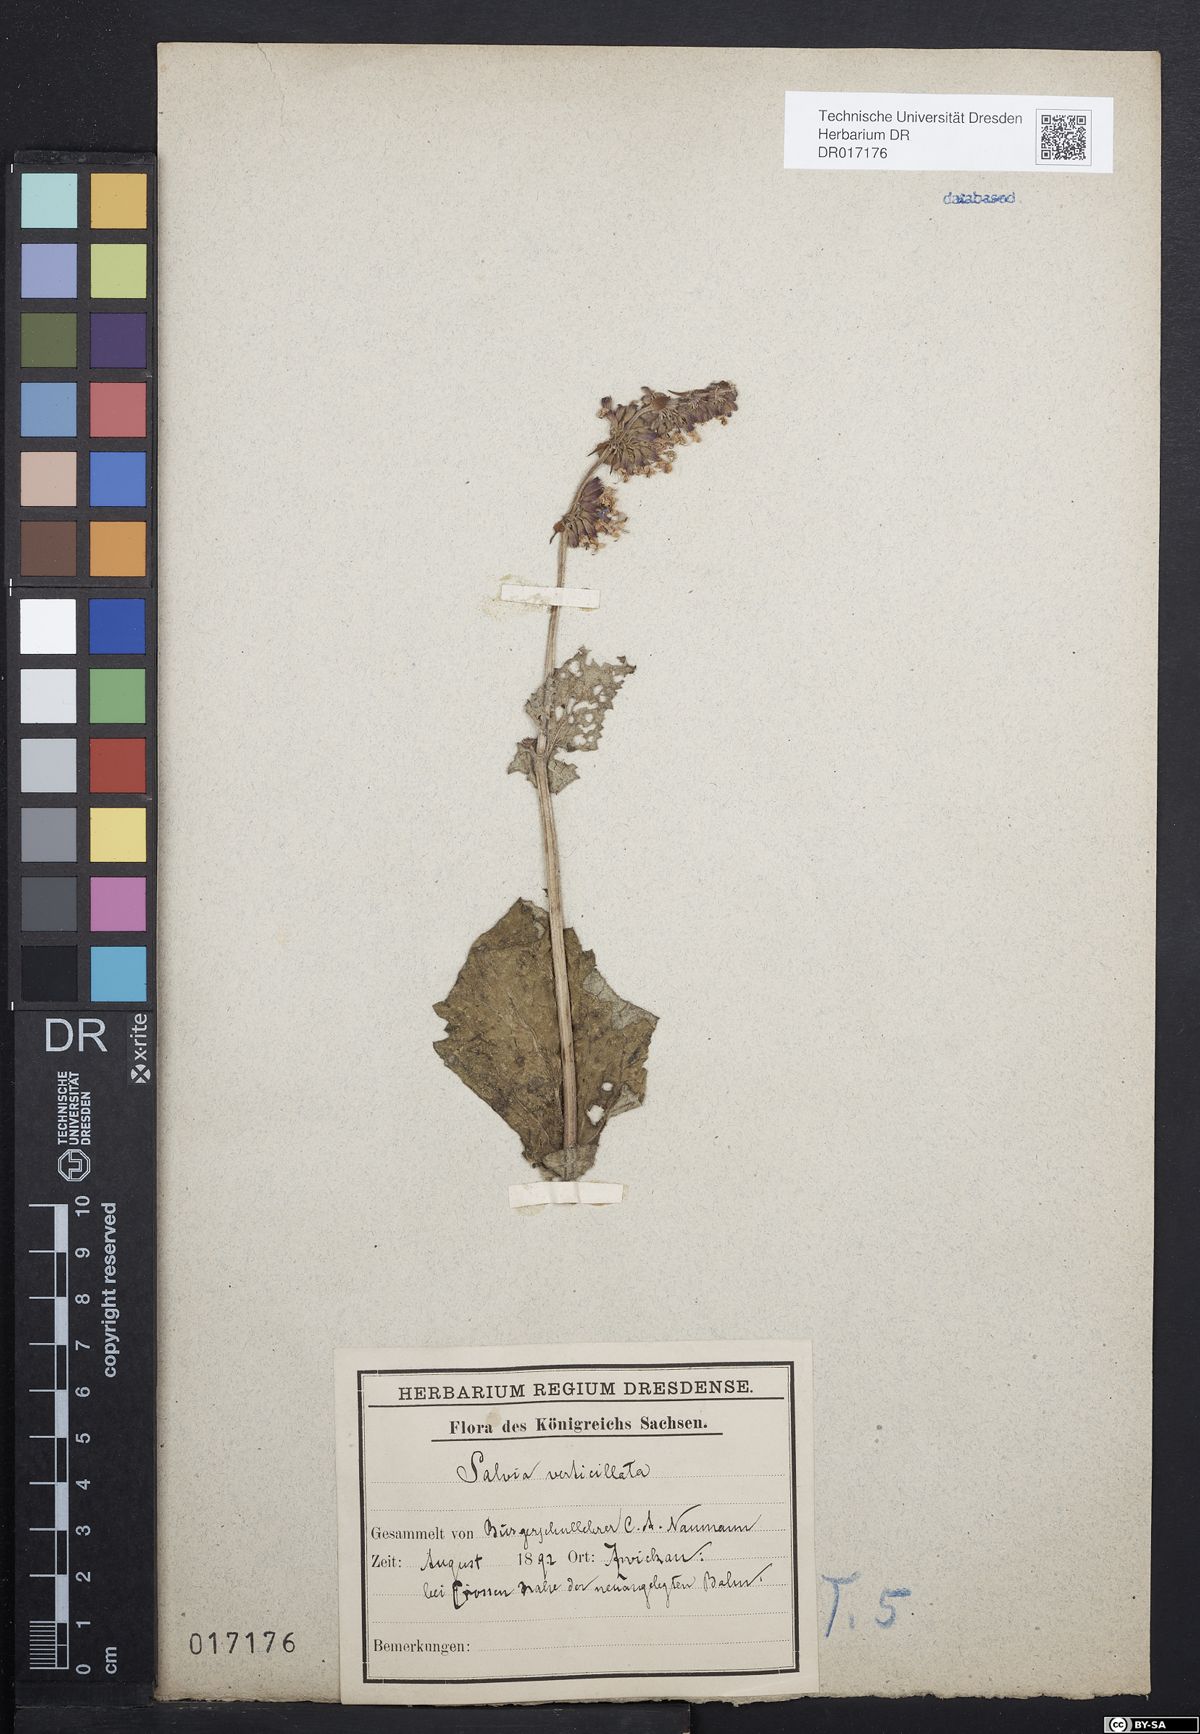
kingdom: Plantae
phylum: Tracheophyta
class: Magnoliopsida
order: Lamiales
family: Lamiaceae
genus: Salvia
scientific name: Salvia verticillata
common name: Whorled clary
